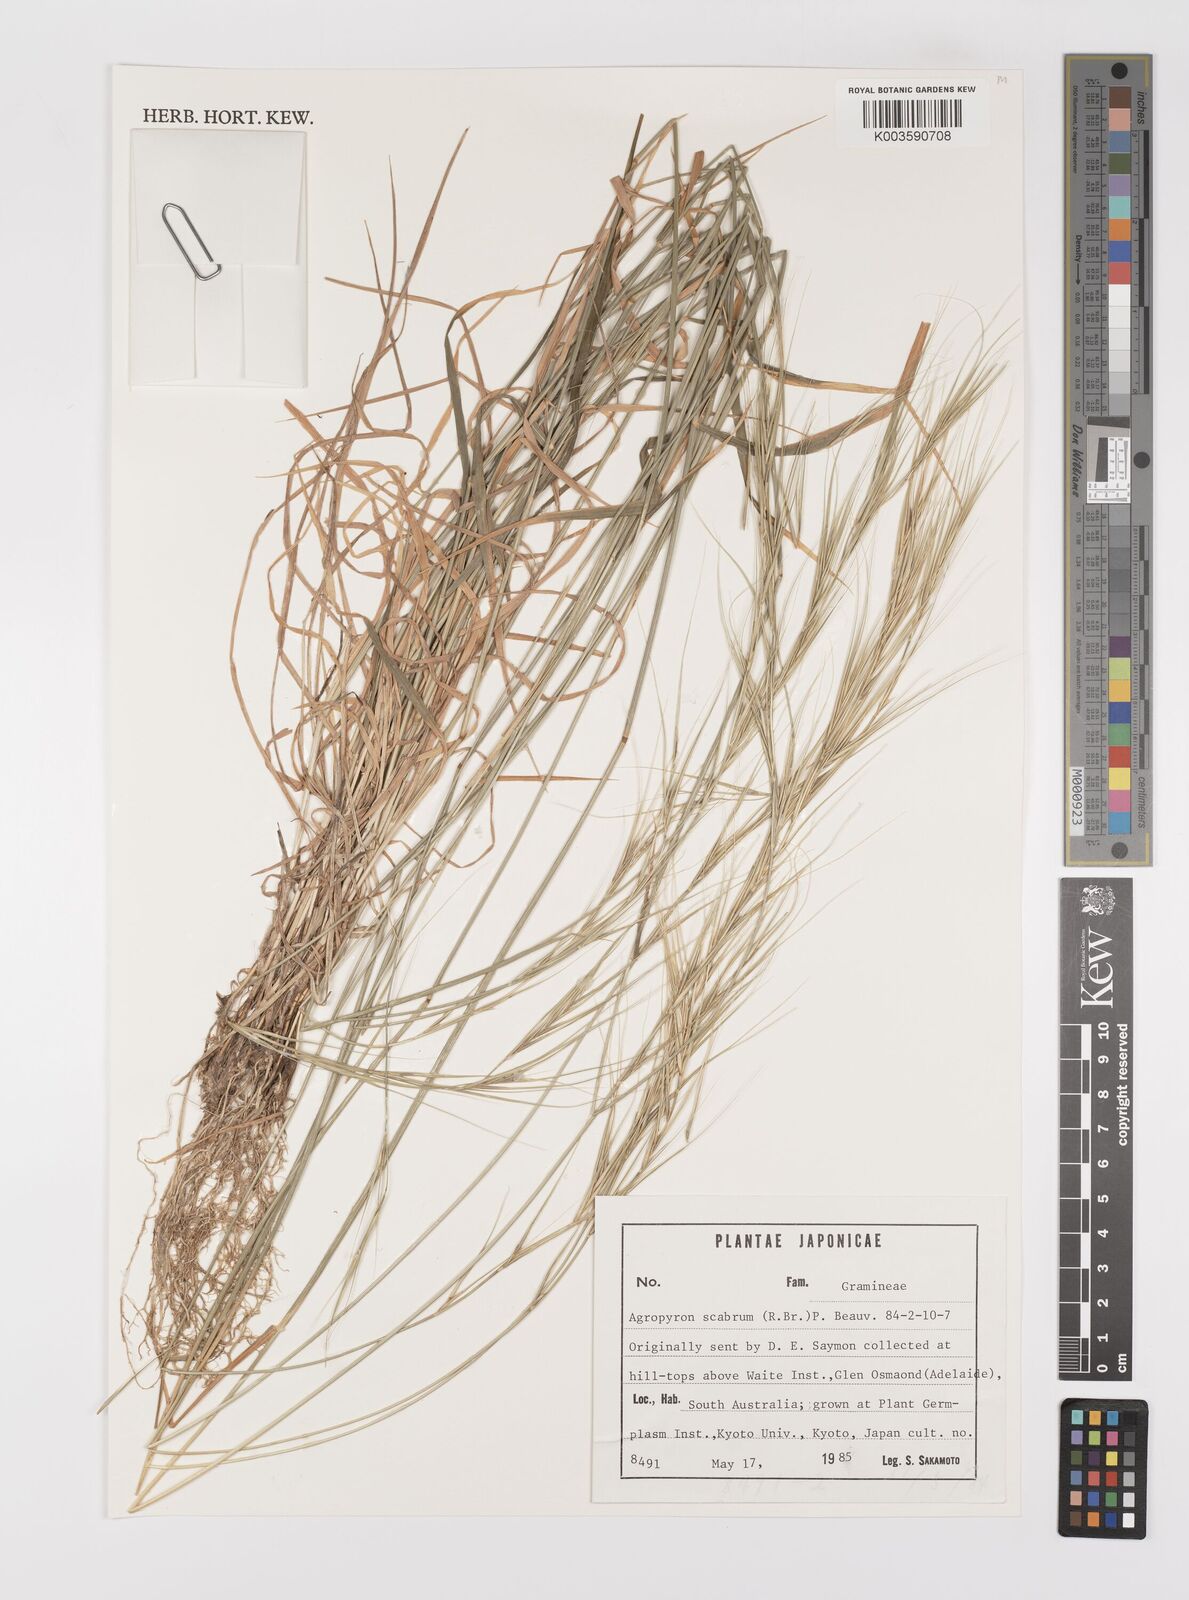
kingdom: Plantae
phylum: Tracheophyta
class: Liliopsida
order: Poales
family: Poaceae
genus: Elymus
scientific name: Elymus
